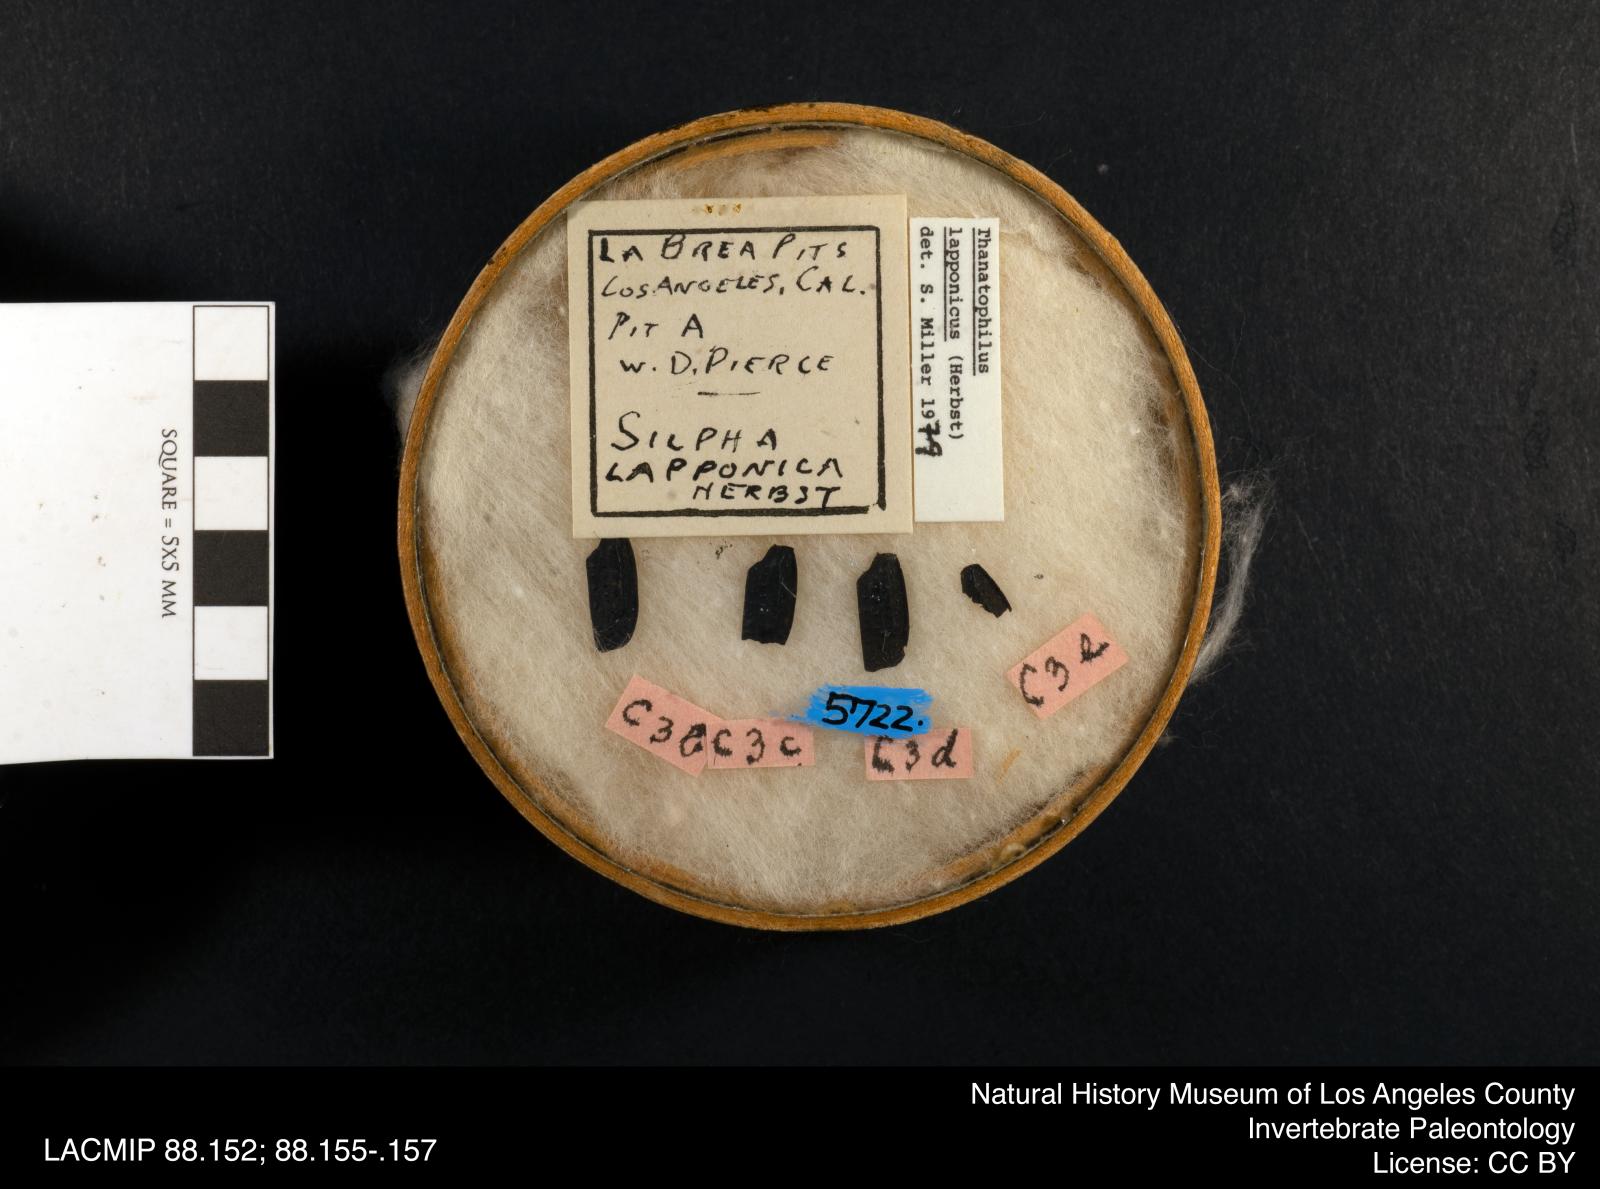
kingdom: Animalia
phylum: Arthropoda
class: Insecta
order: Coleoptera
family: Staphylinidae
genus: Thanatophilus
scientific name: Thanatophilus lapponicus
